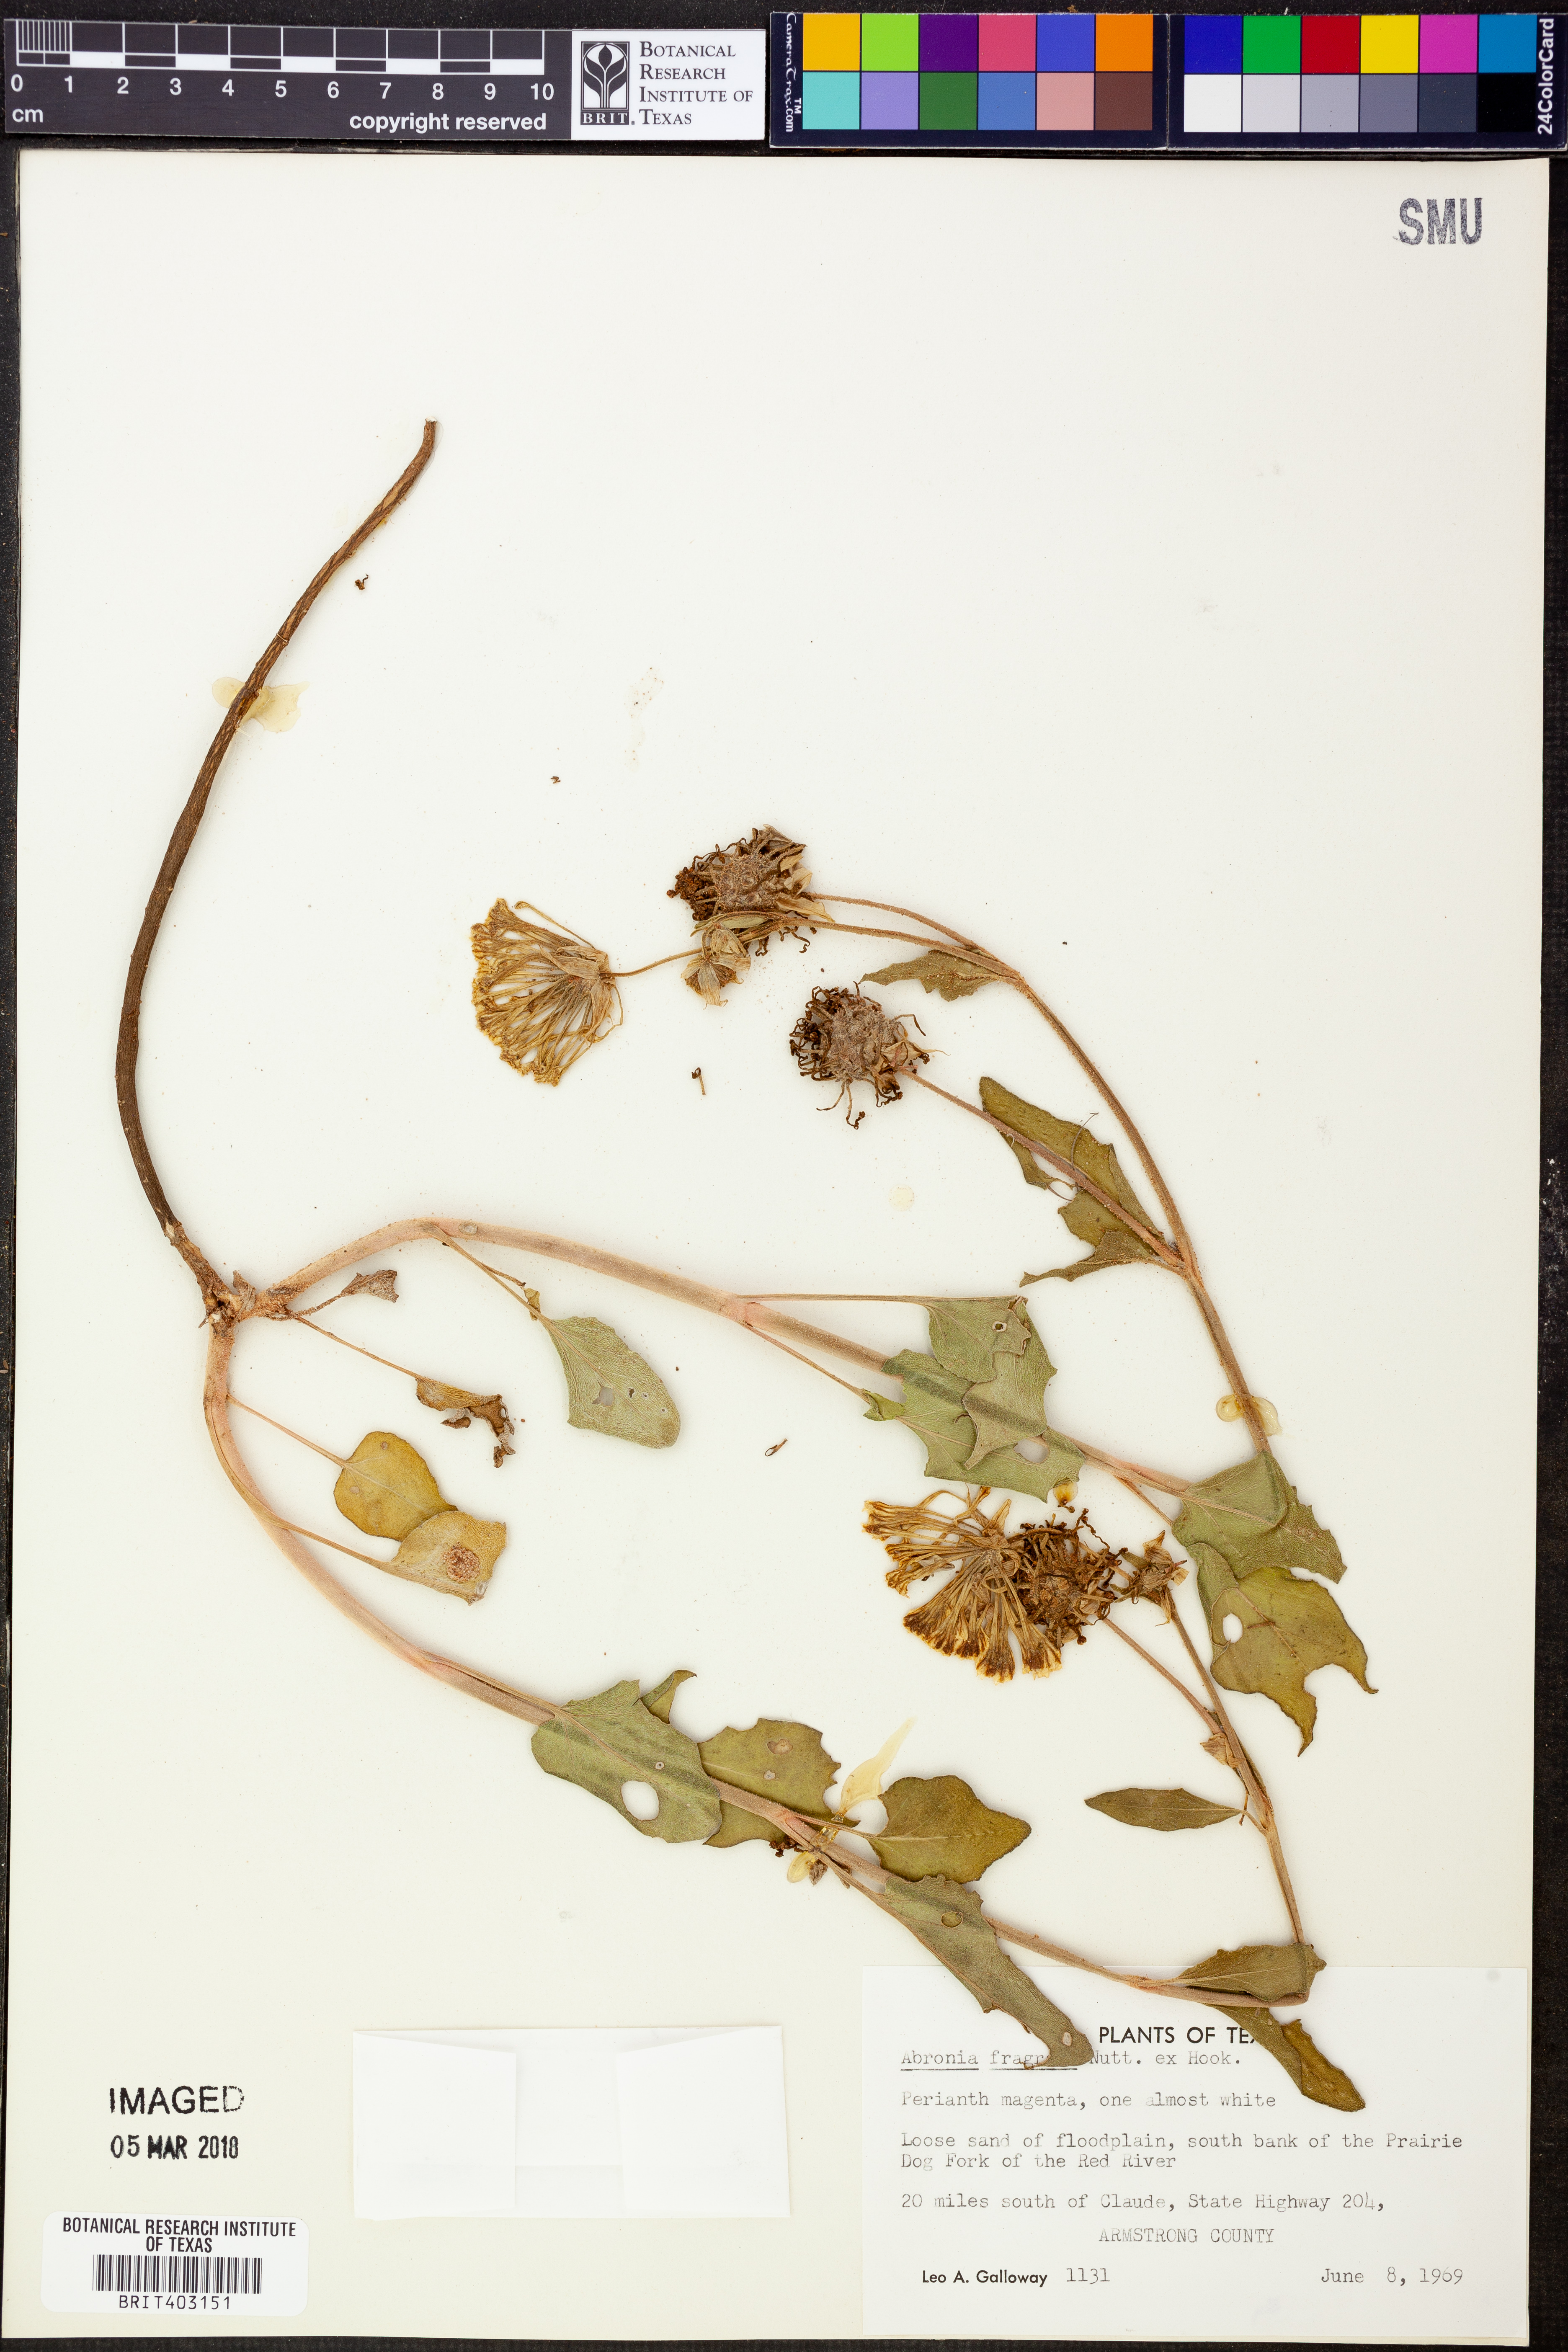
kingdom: Plantae
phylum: Tracheophyta
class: Magnoliopsida
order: Caryophyllales
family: Nyctaginaceae
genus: Abronia
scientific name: Abronia fragrans
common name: Fragrant sand-verbena
